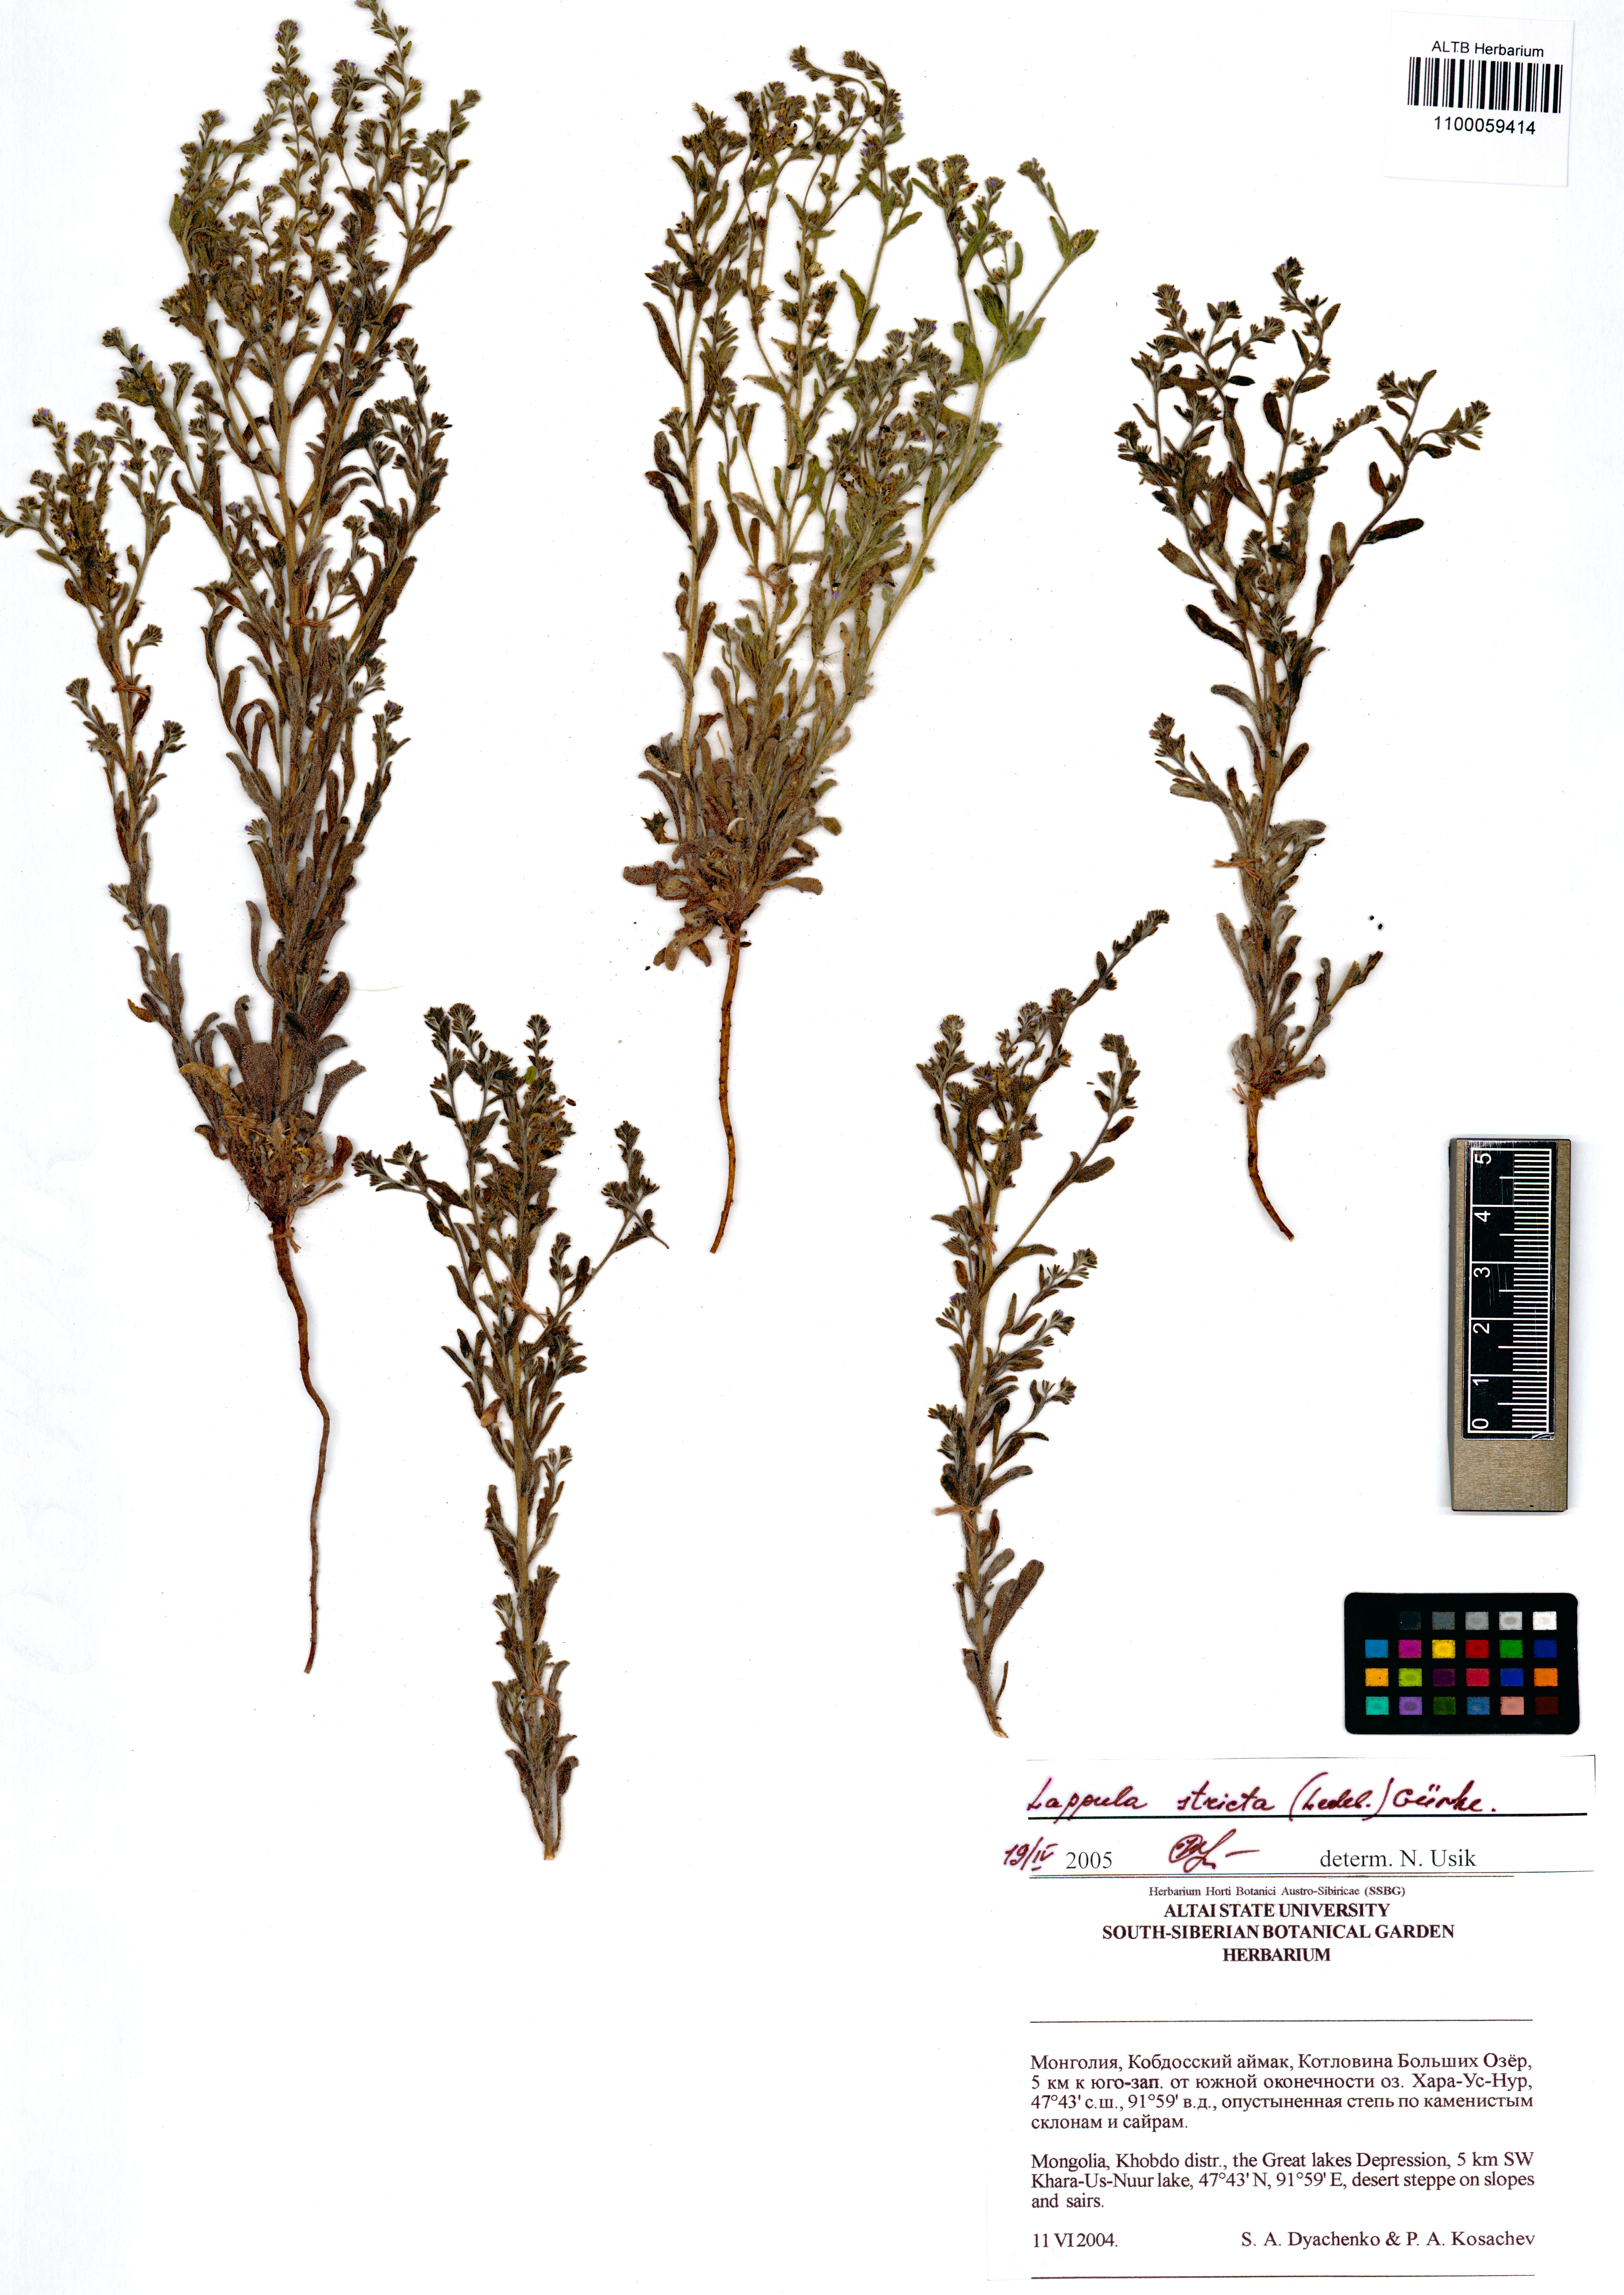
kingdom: Plantae
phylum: Tracheophyta
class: Magnoliopsida
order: Boraginales
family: Boraginaceae
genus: Lappula
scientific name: Lappula stricta
